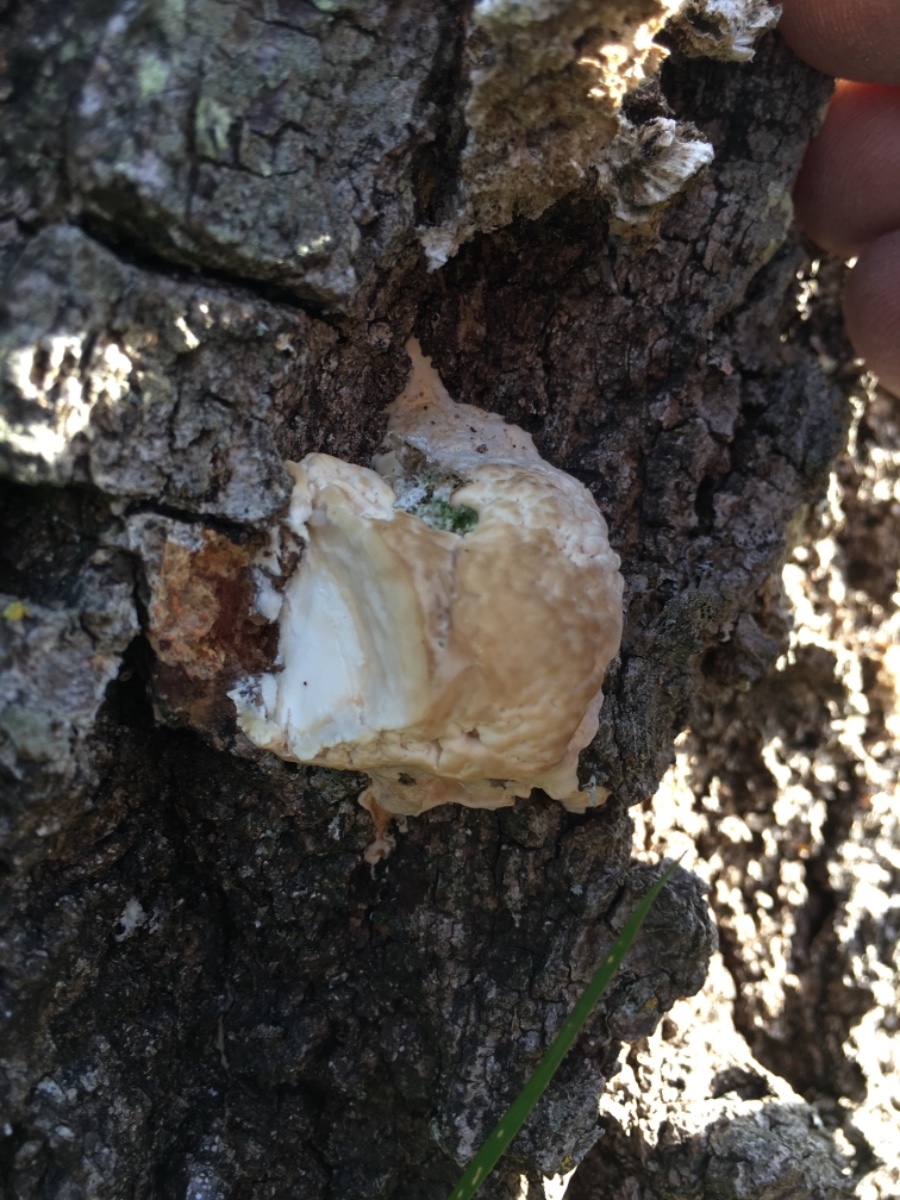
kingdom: Fungi
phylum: Basidiomycota
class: Agaricomycetes
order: Polyporales
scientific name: Polyporales
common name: poresvampordenen
